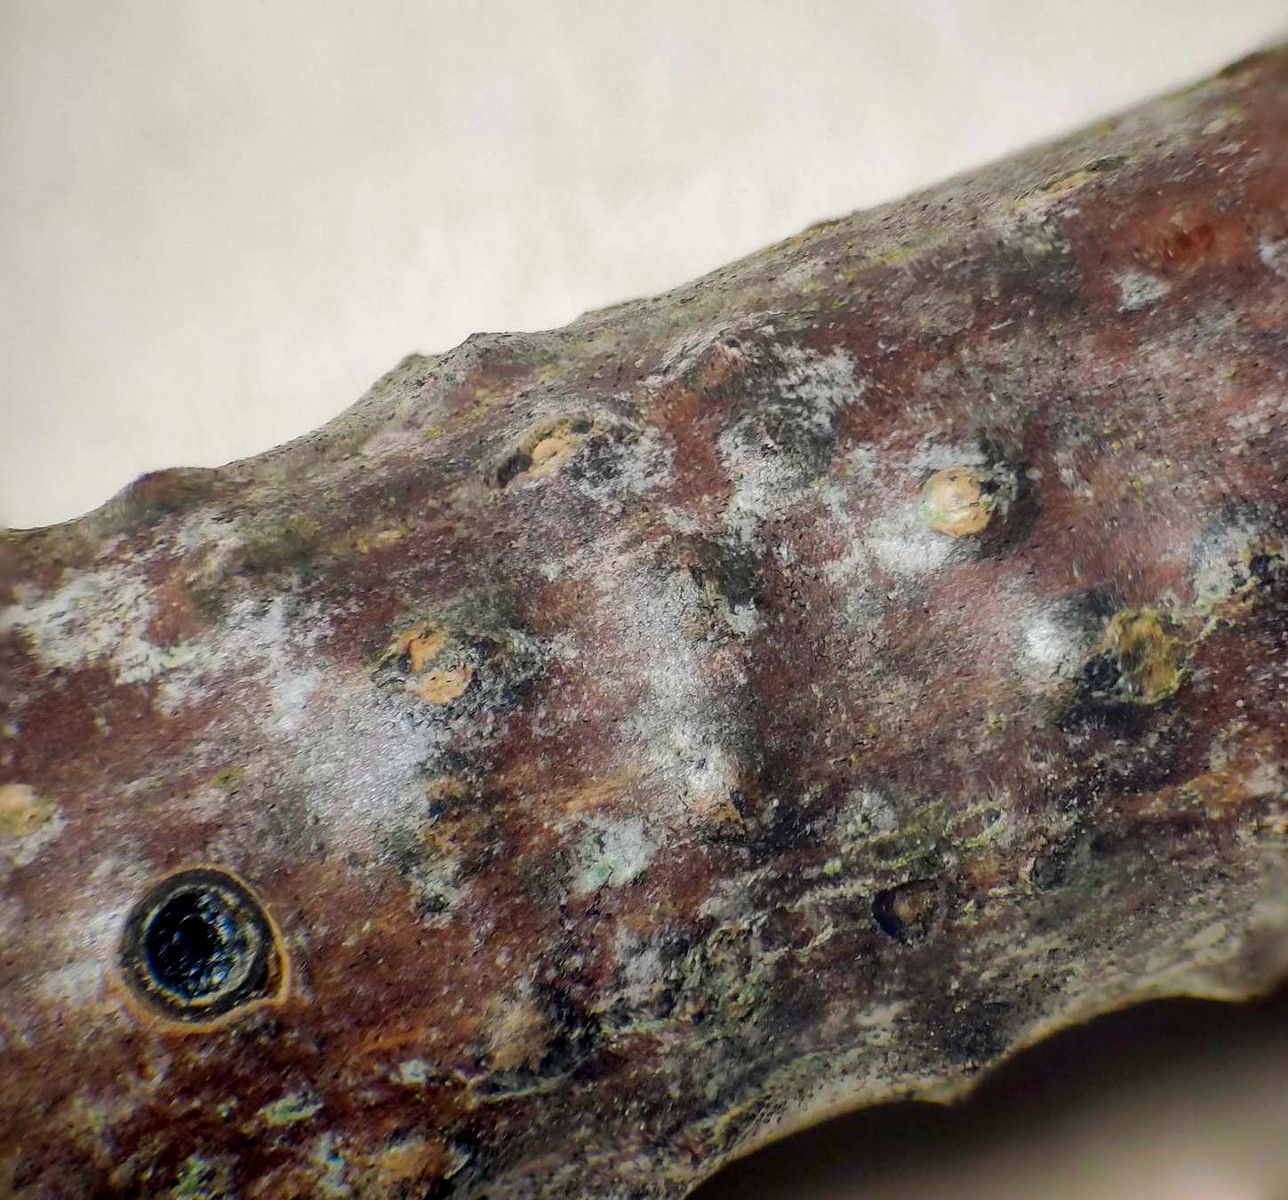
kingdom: Fungi
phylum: Ascomycota
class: Dothideomycetes
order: Pleosporales
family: Massariaceae
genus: Massaria
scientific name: Massaria inquinans
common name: ahorn-kulvulkan
